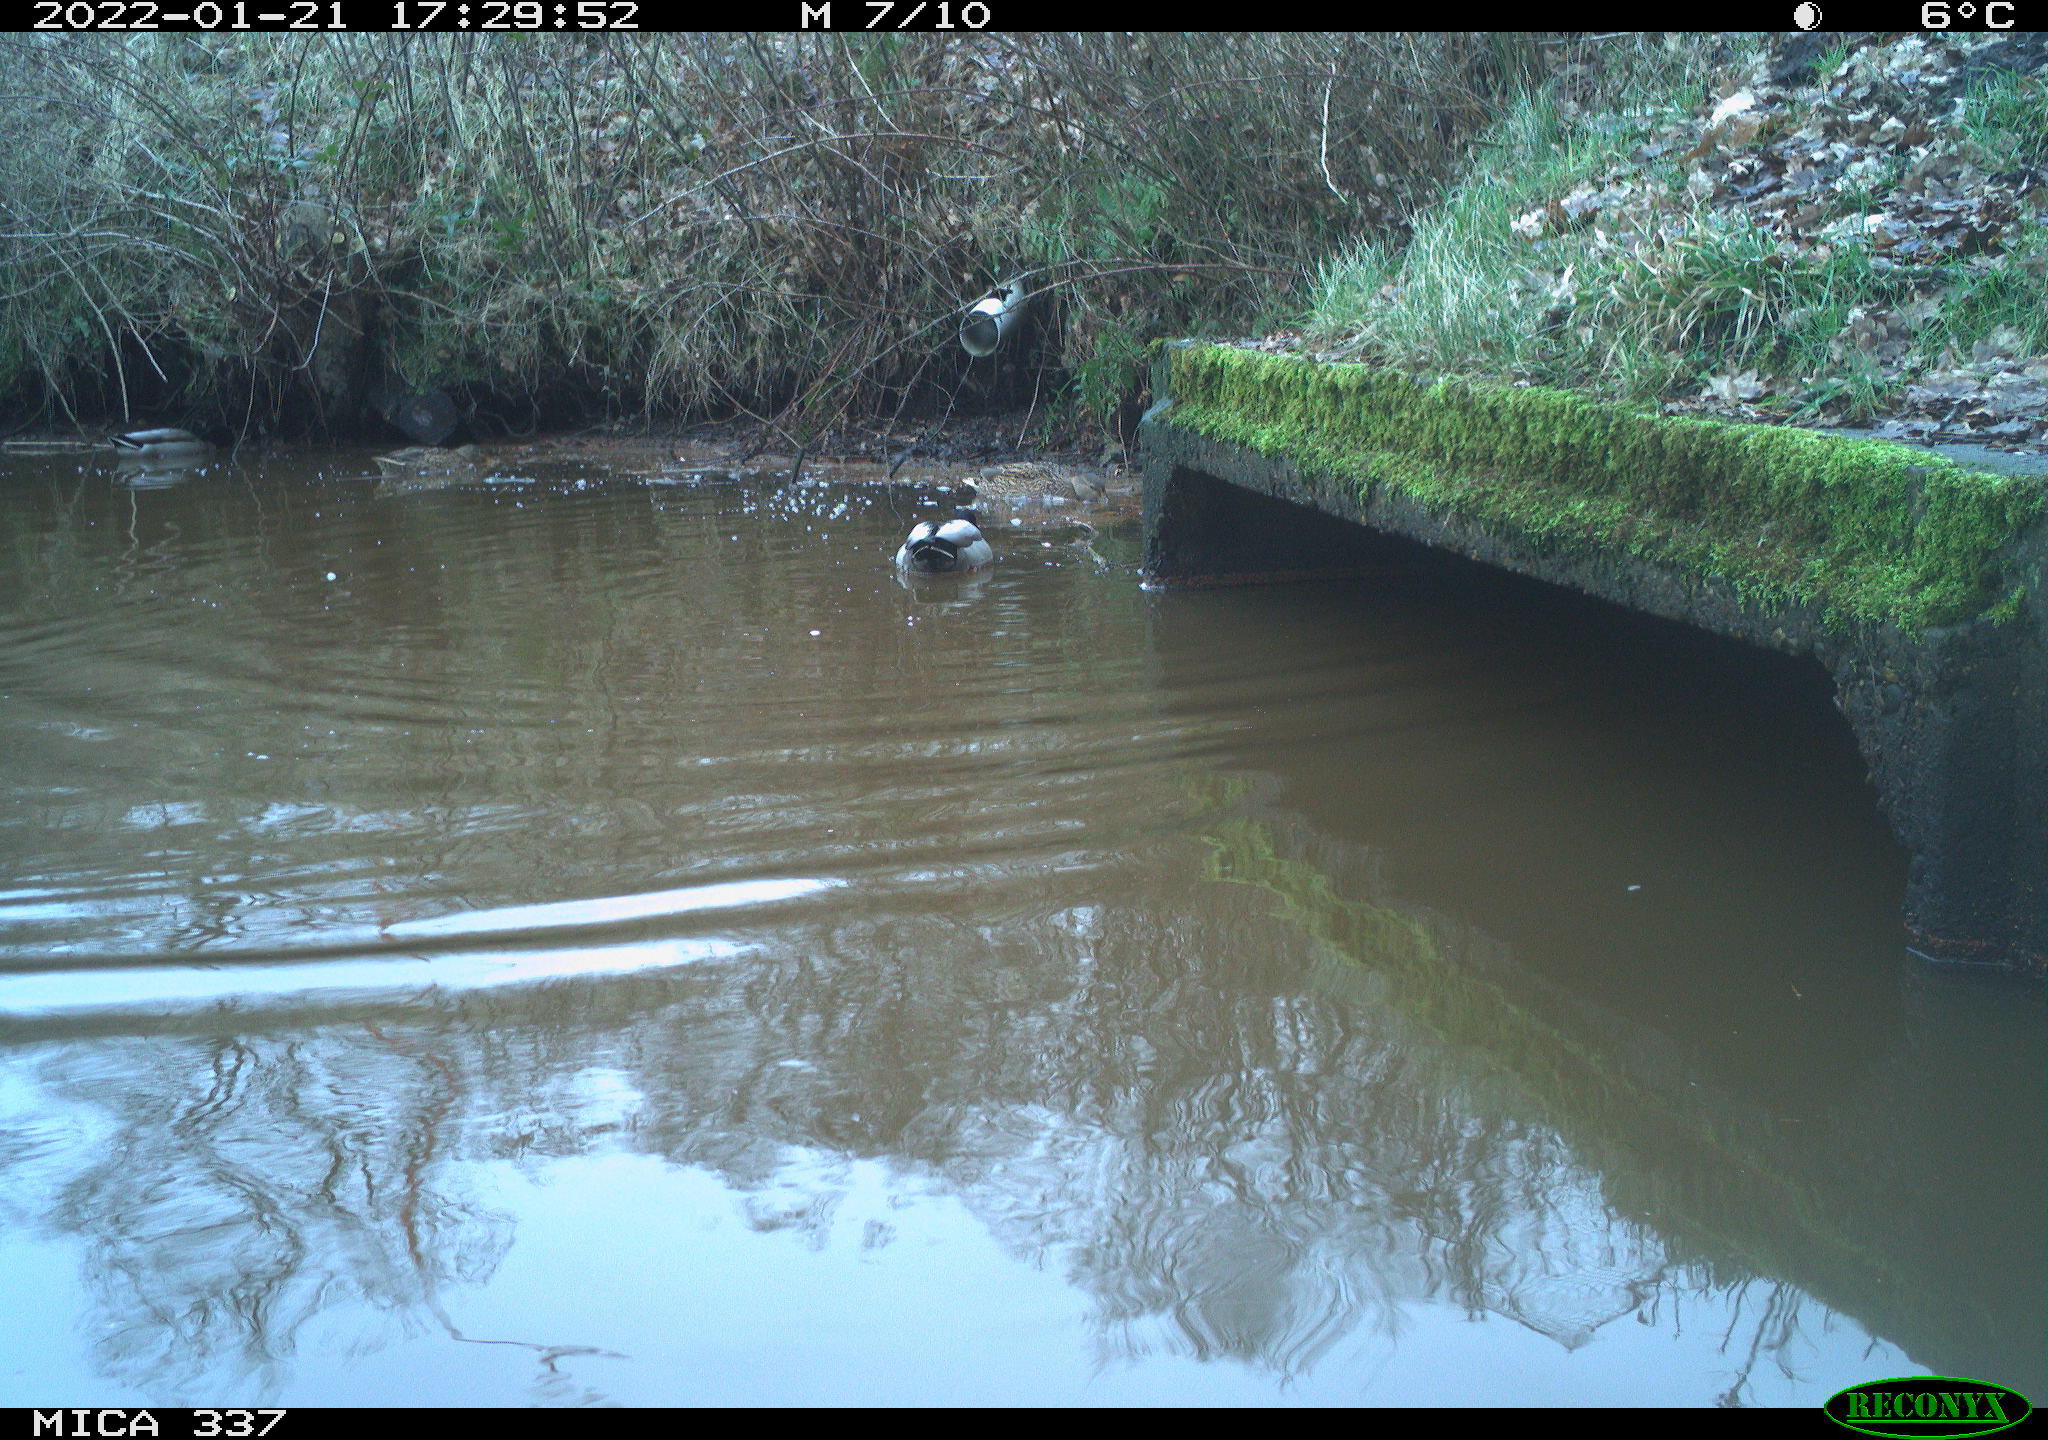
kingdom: Animalia
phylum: Chordata
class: Aves
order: Anseriformes
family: Anatidae
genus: Anas
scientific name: Anas platyrhynchos
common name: Mallard
